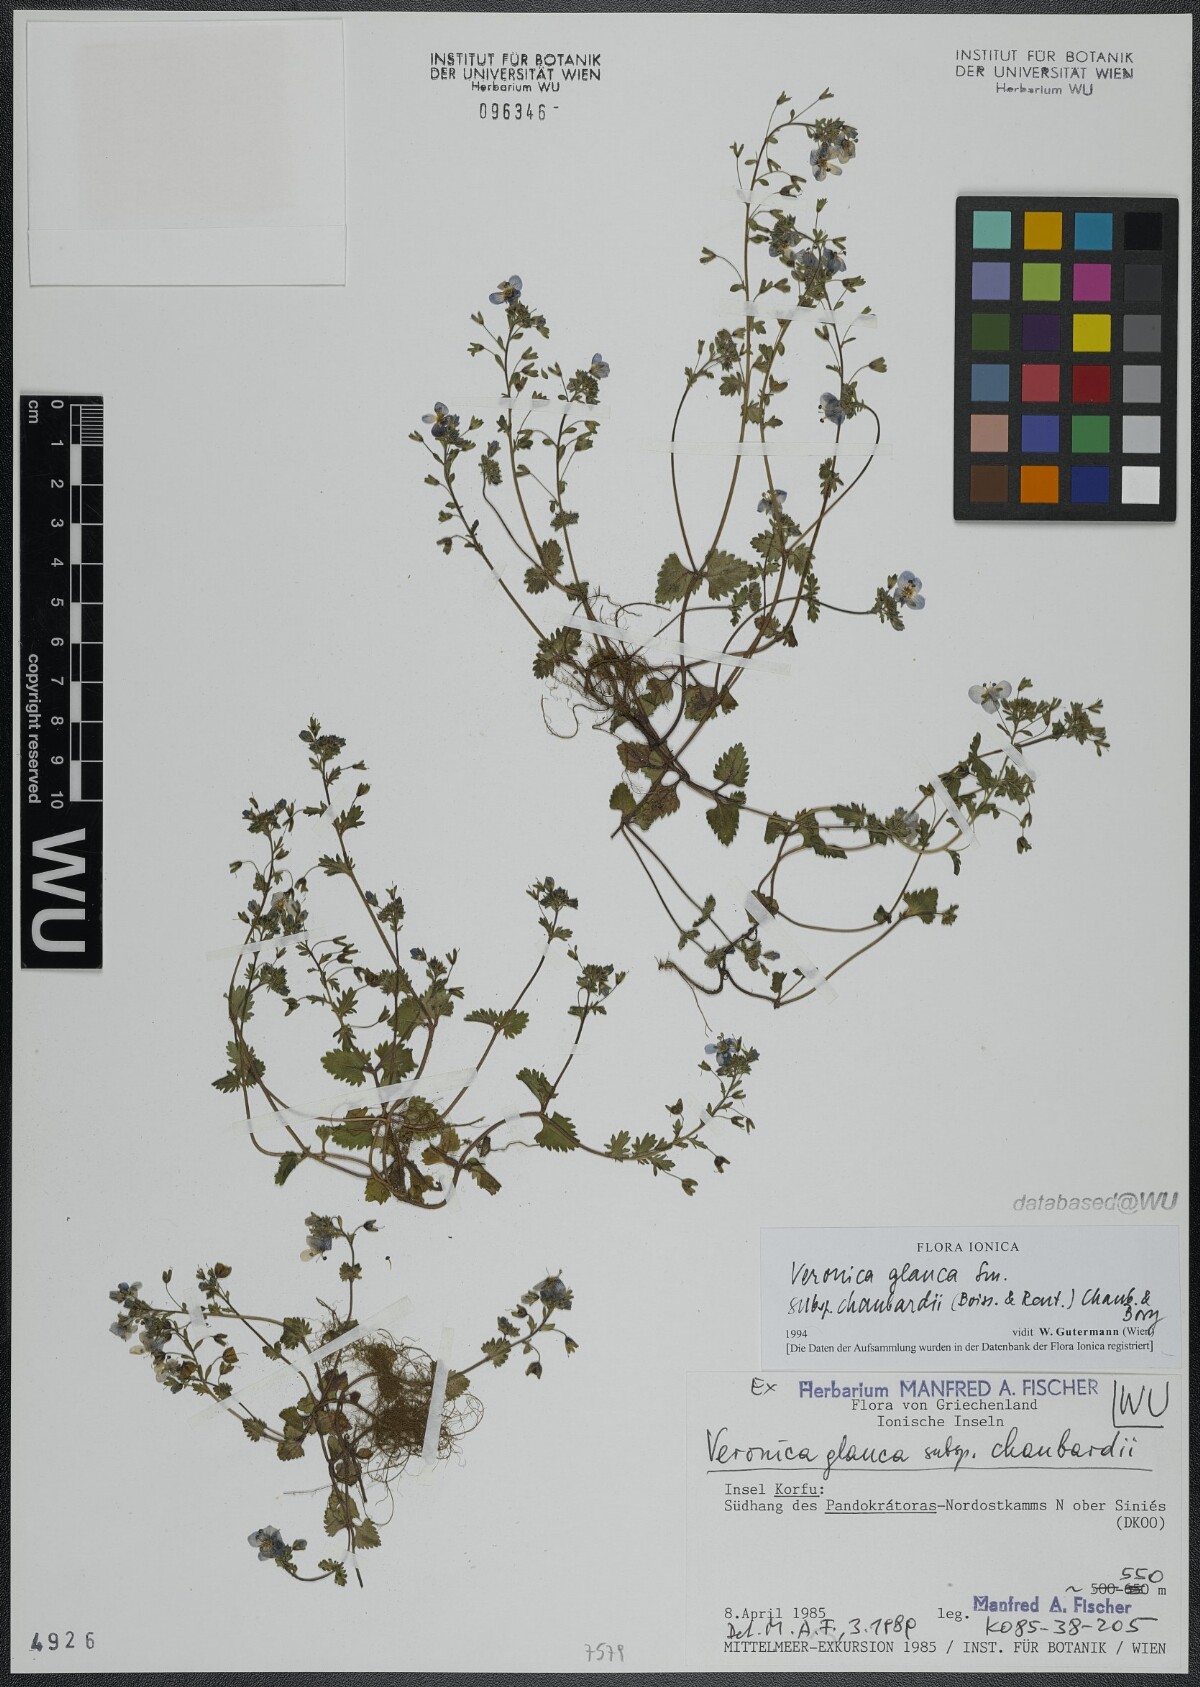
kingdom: Plantae
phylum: Tracheophyta
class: Magnoliopsida
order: Lamiales
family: Plantaginaceae
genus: Veronica
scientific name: Veronica glauca
